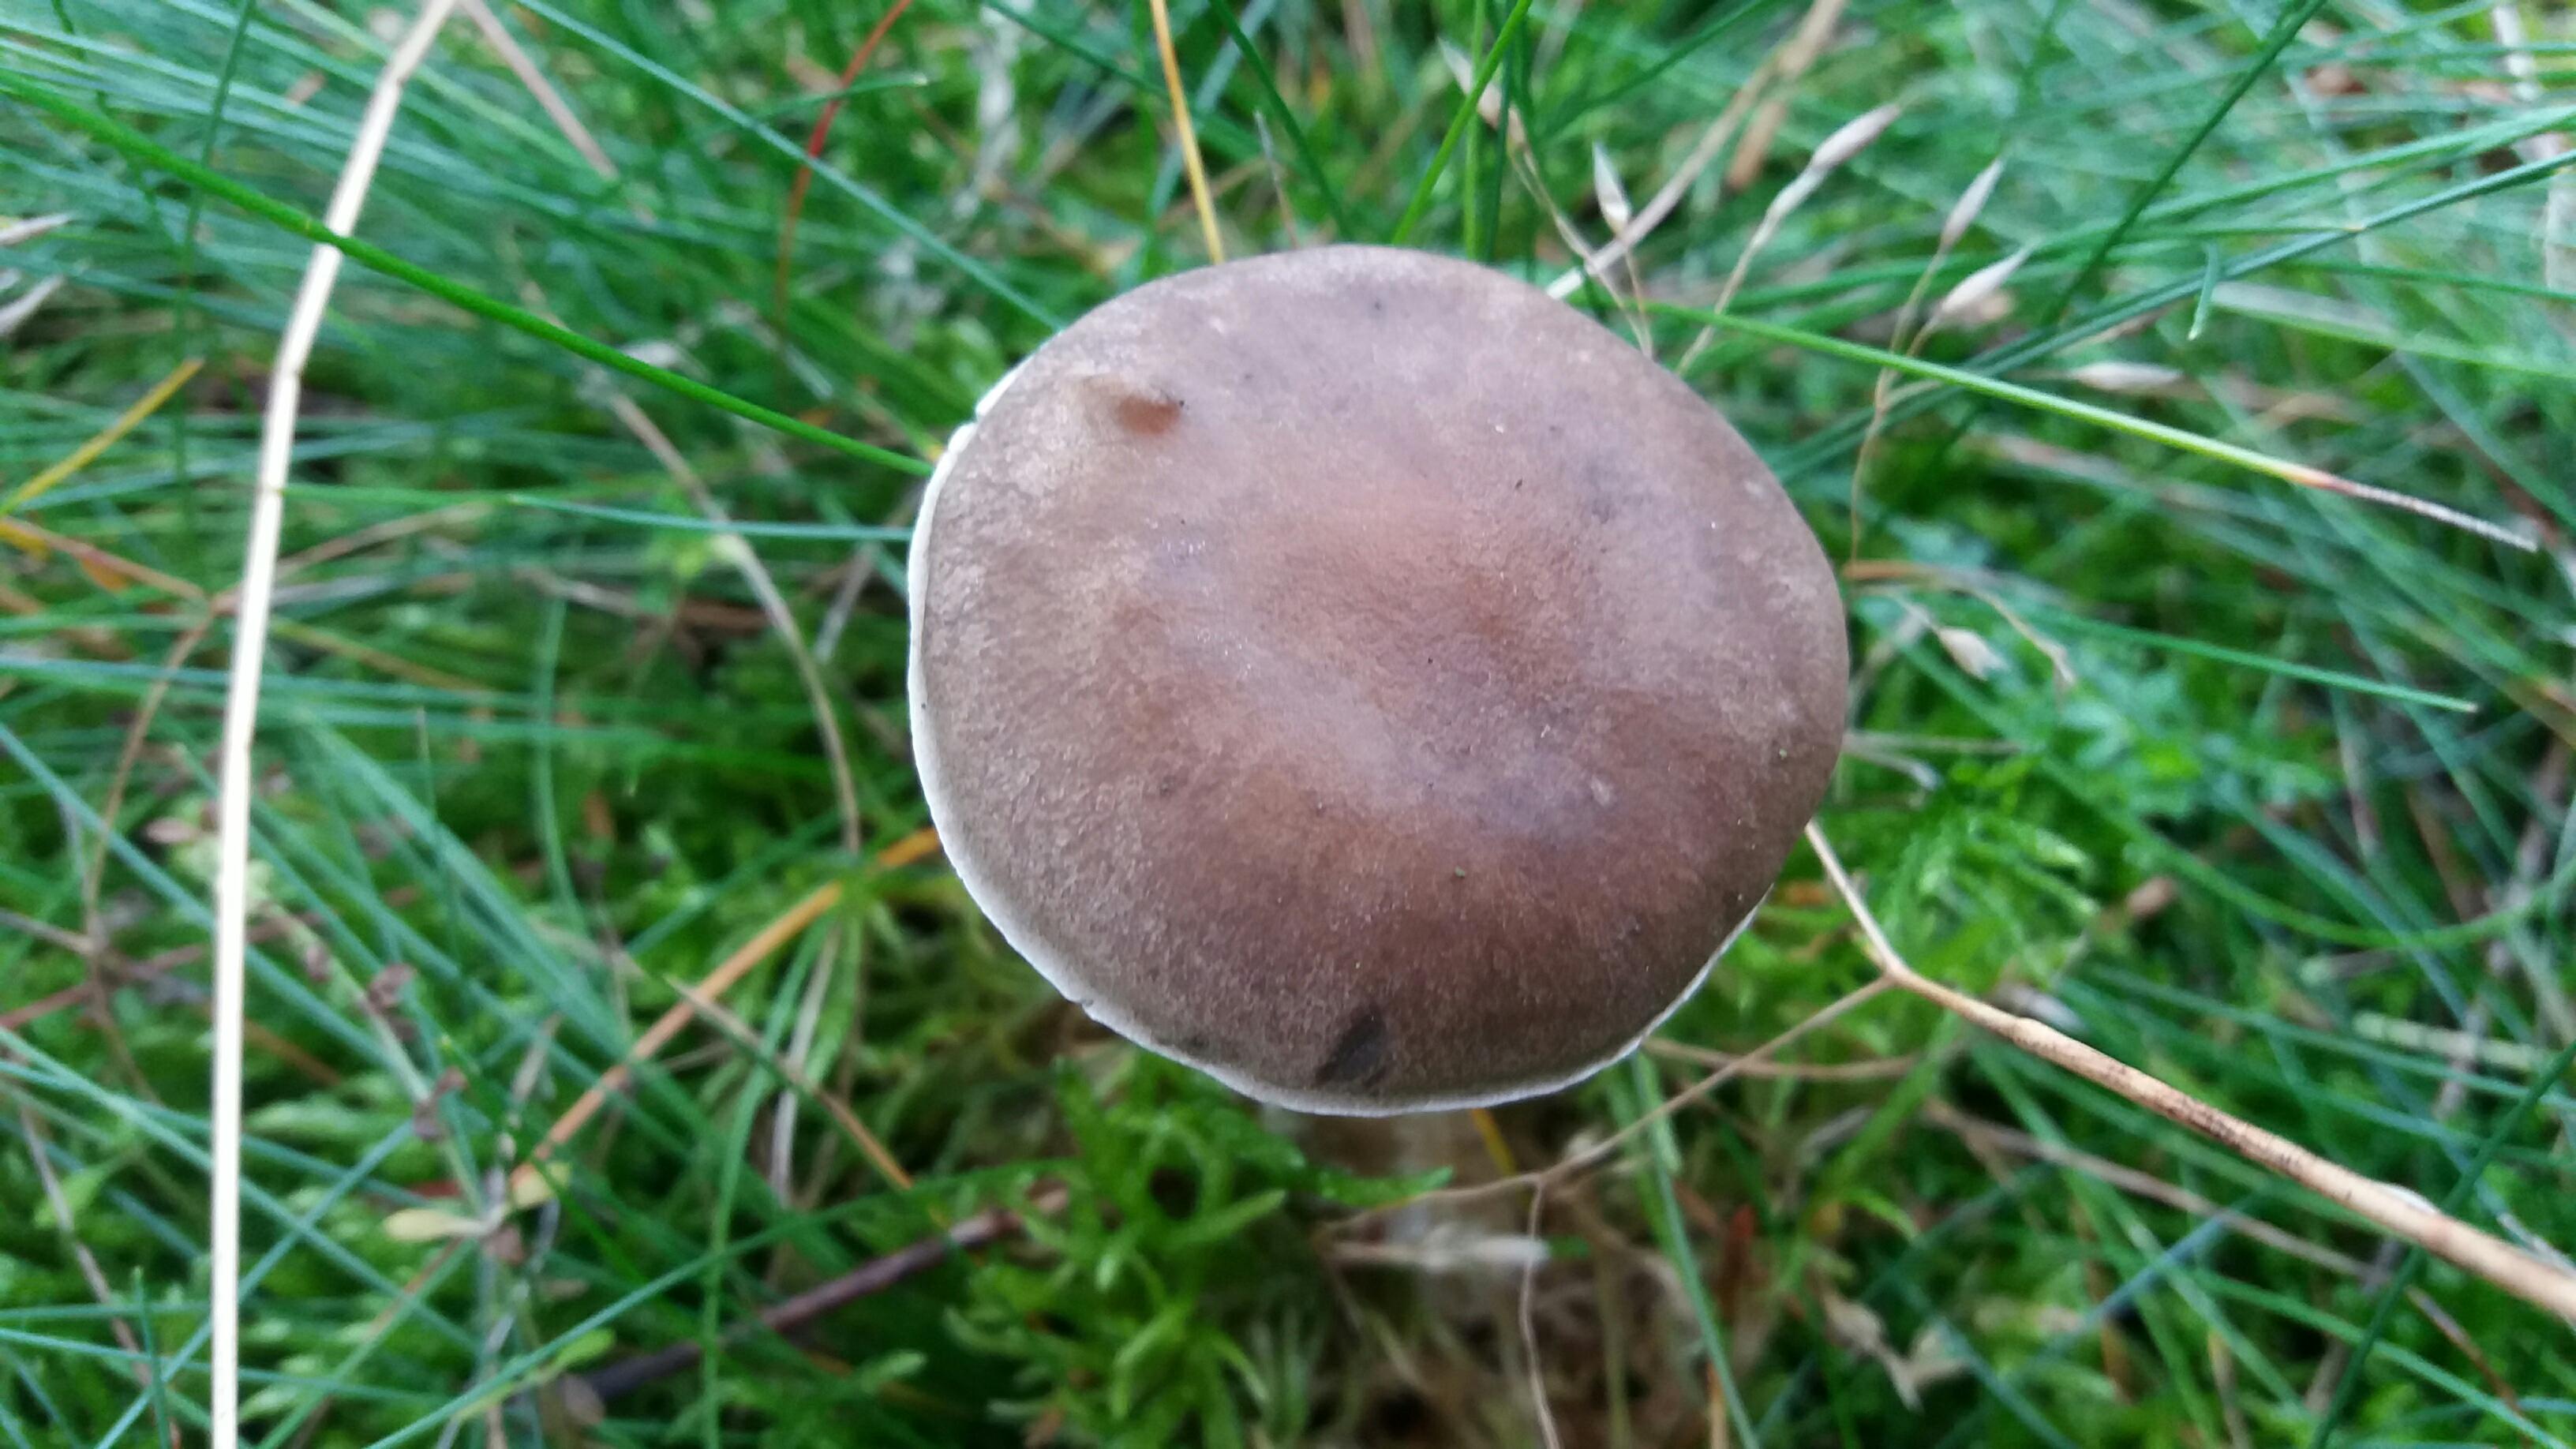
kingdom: Fungi
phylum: Basidiomycota
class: Agaricomycetes
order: Agaricales
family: Hygrophoraceae
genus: Ampulloclitocybe
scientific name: Ampulloclitocybe clavipes
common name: køllefod
